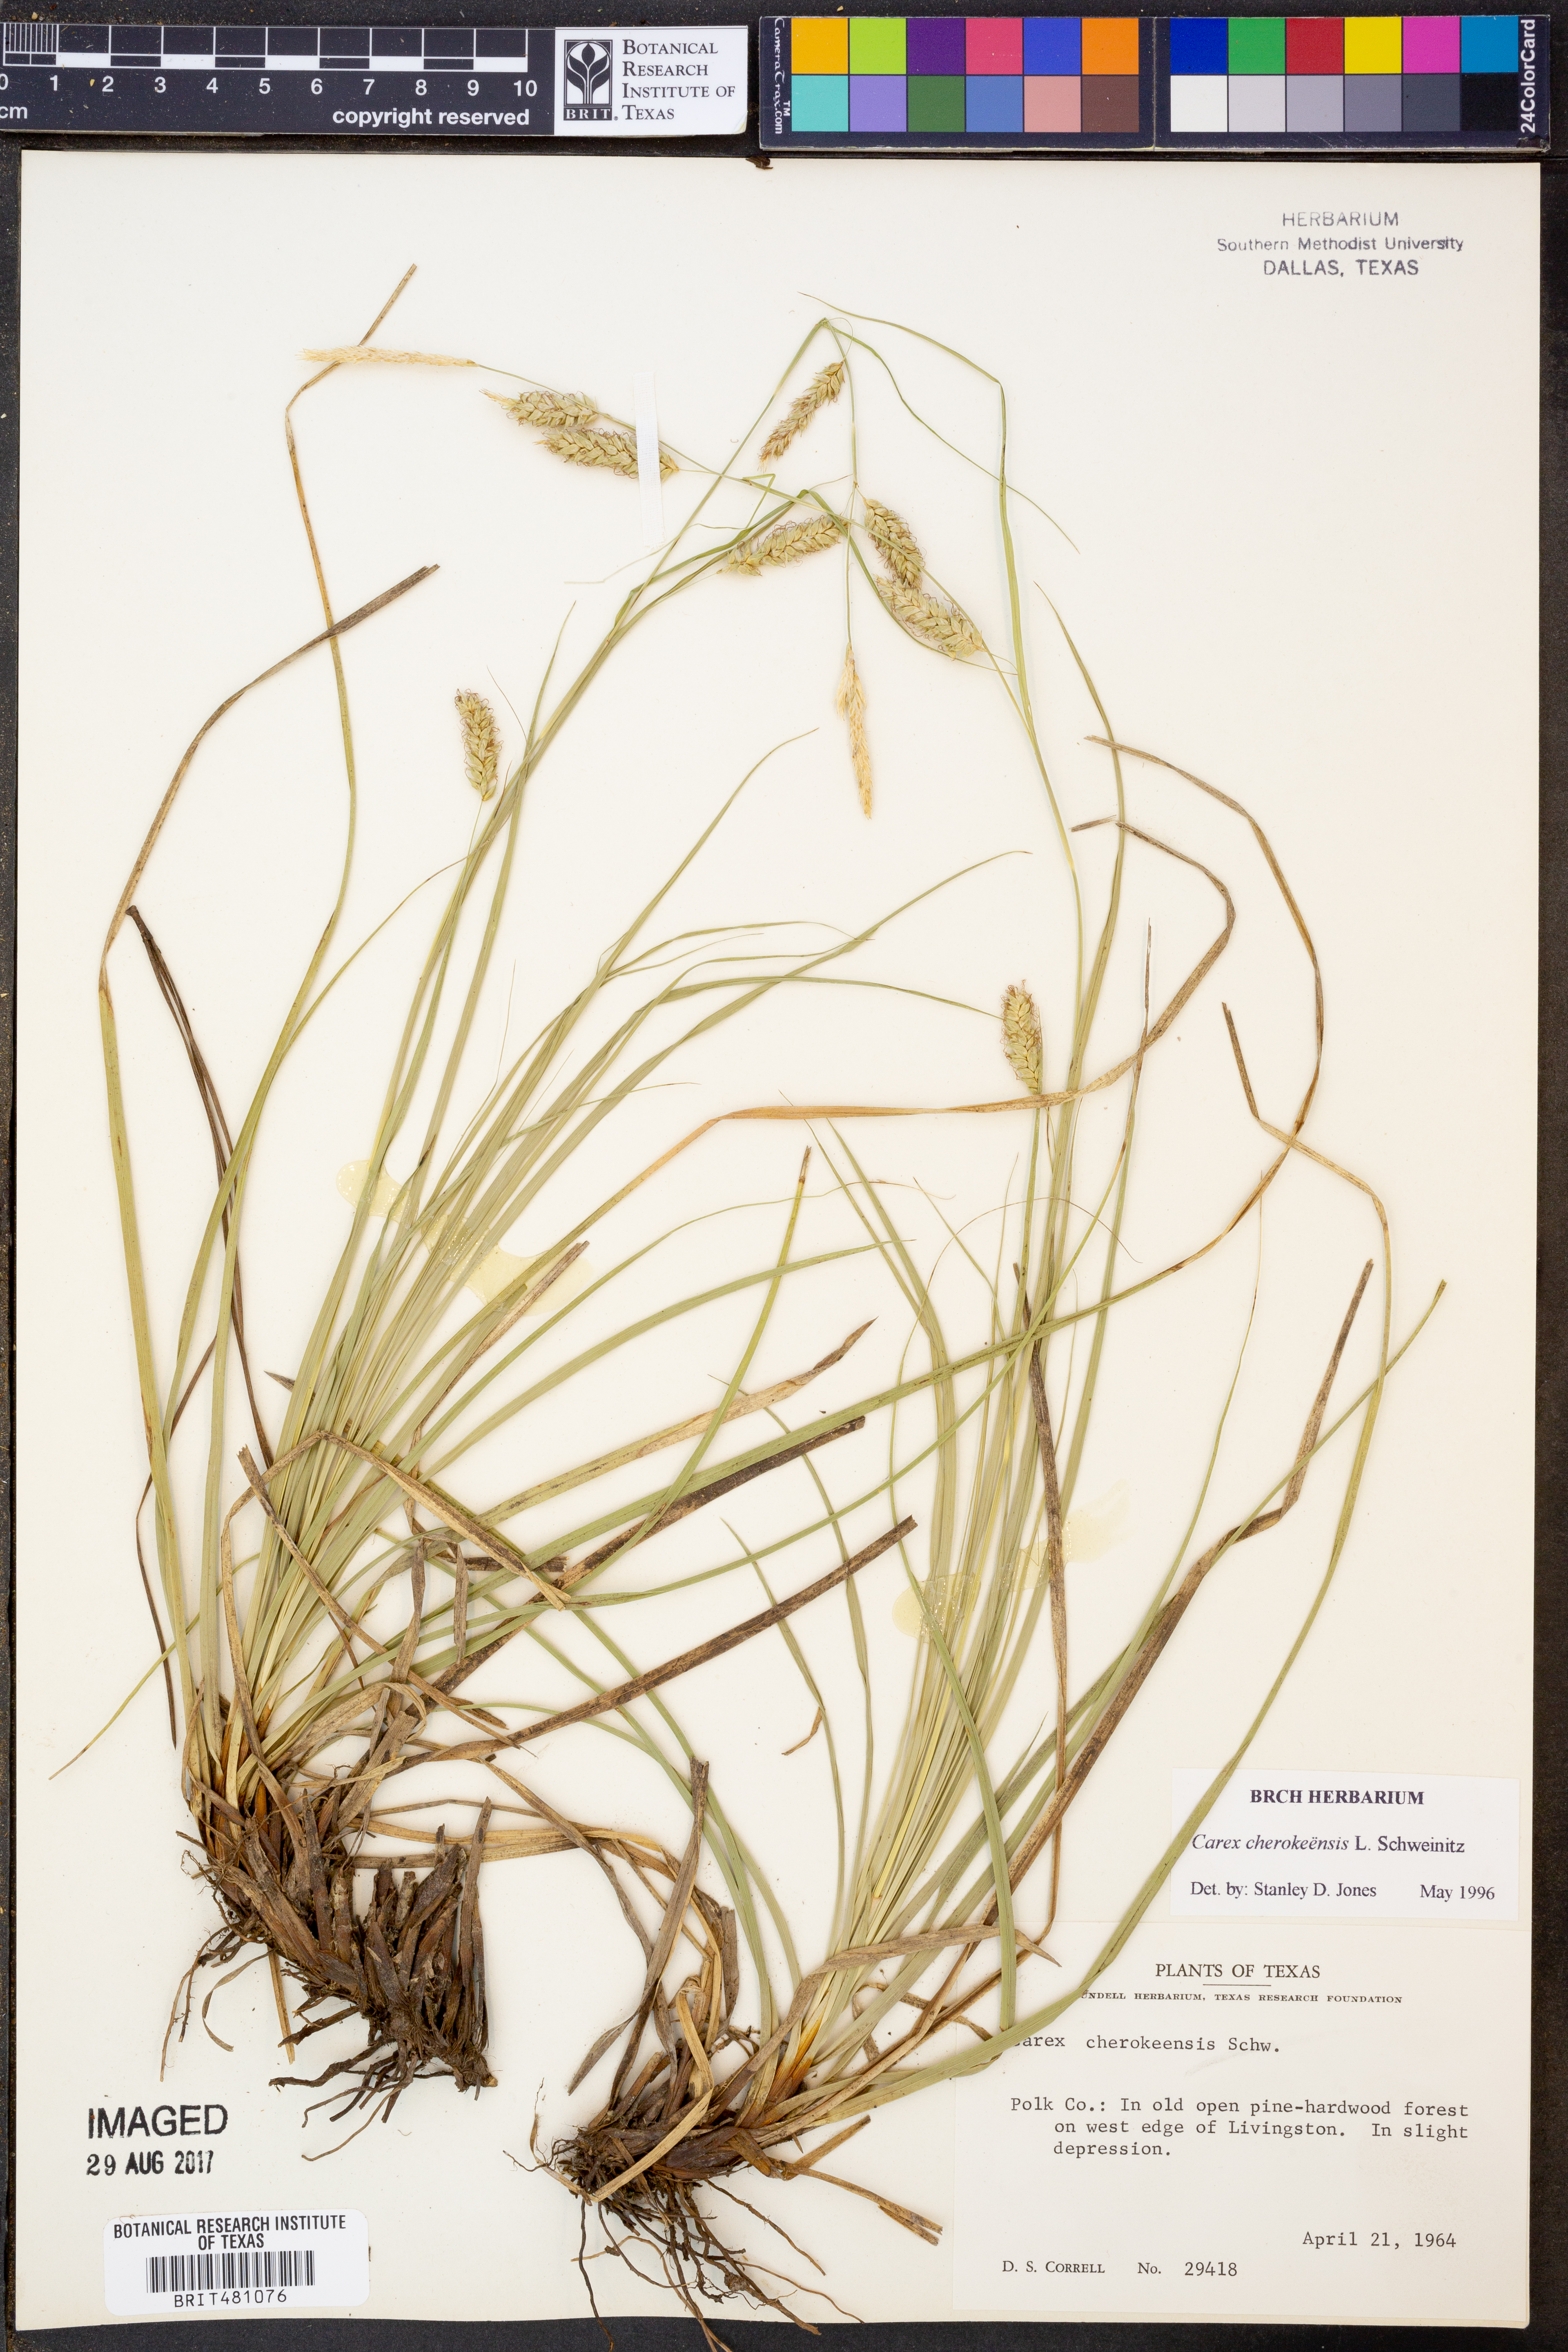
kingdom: Plantae
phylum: Tracheophyta
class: Liliopsida
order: Poales
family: Cyperaceae
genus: Carex
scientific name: Carex cherokeensis
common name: Cherokee sedge
